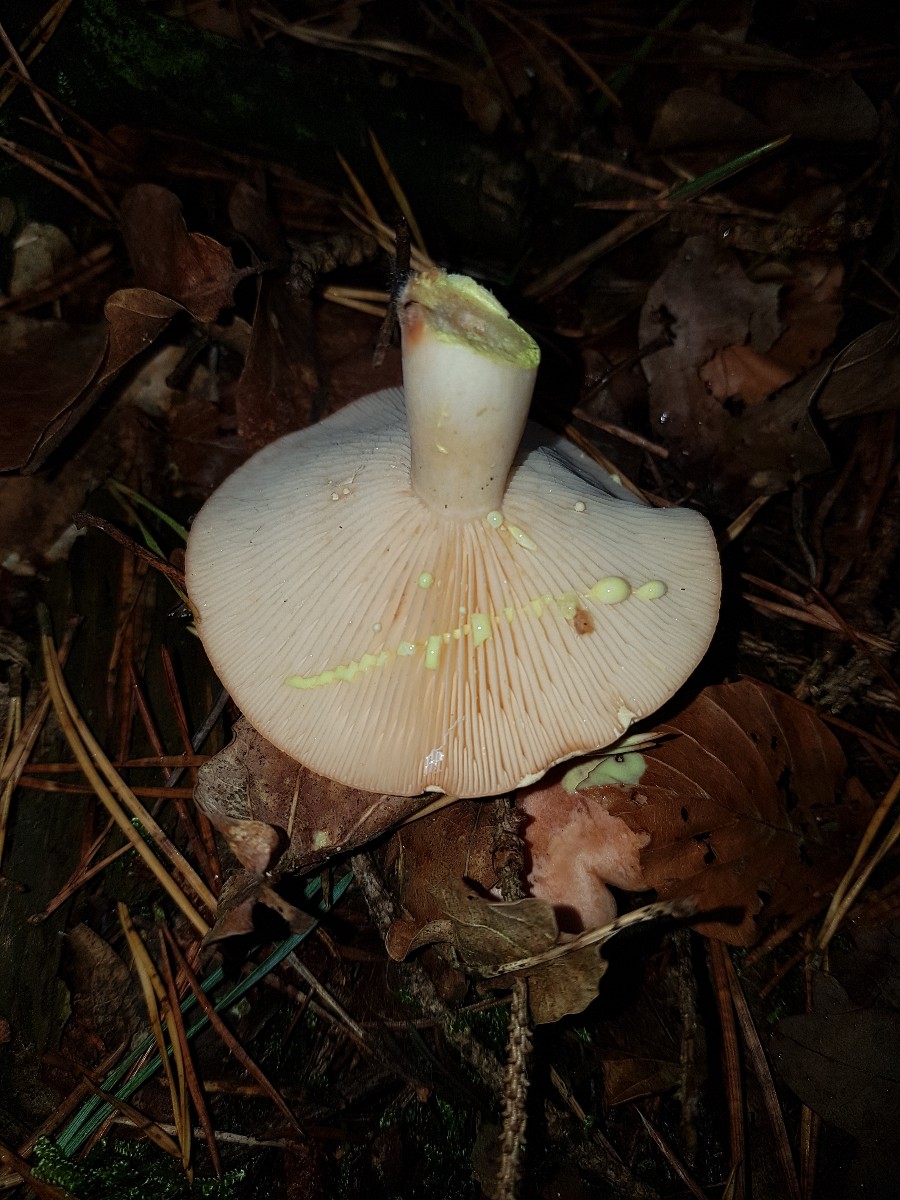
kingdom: Fungi
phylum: Basidiomycota
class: Agaricomycetes
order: Russulales
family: Russulaceae
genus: Lactarius
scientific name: Lactarius chrysorrheus
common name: svovlmælket mælkehat
